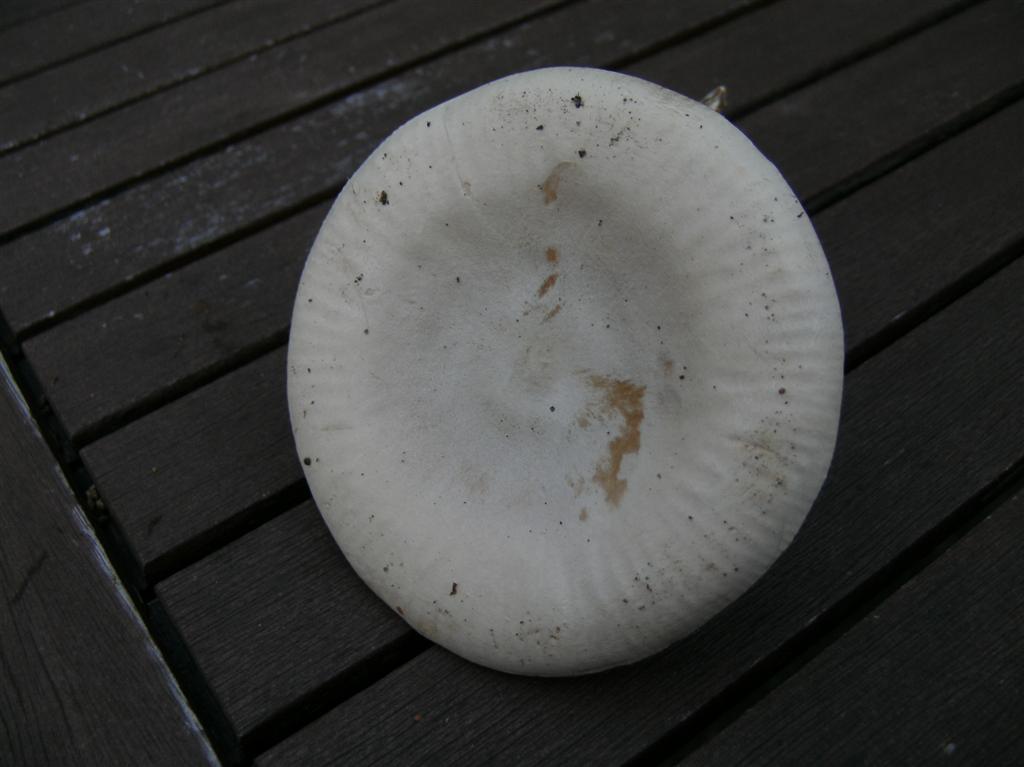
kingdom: Fungi
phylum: Basidiomycota
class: Agaricomycetes
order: Agaricales
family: Tricholomataceae
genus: Atractosporocybe
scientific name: Atractosporocybe inornata
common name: filtstokket tragthat
